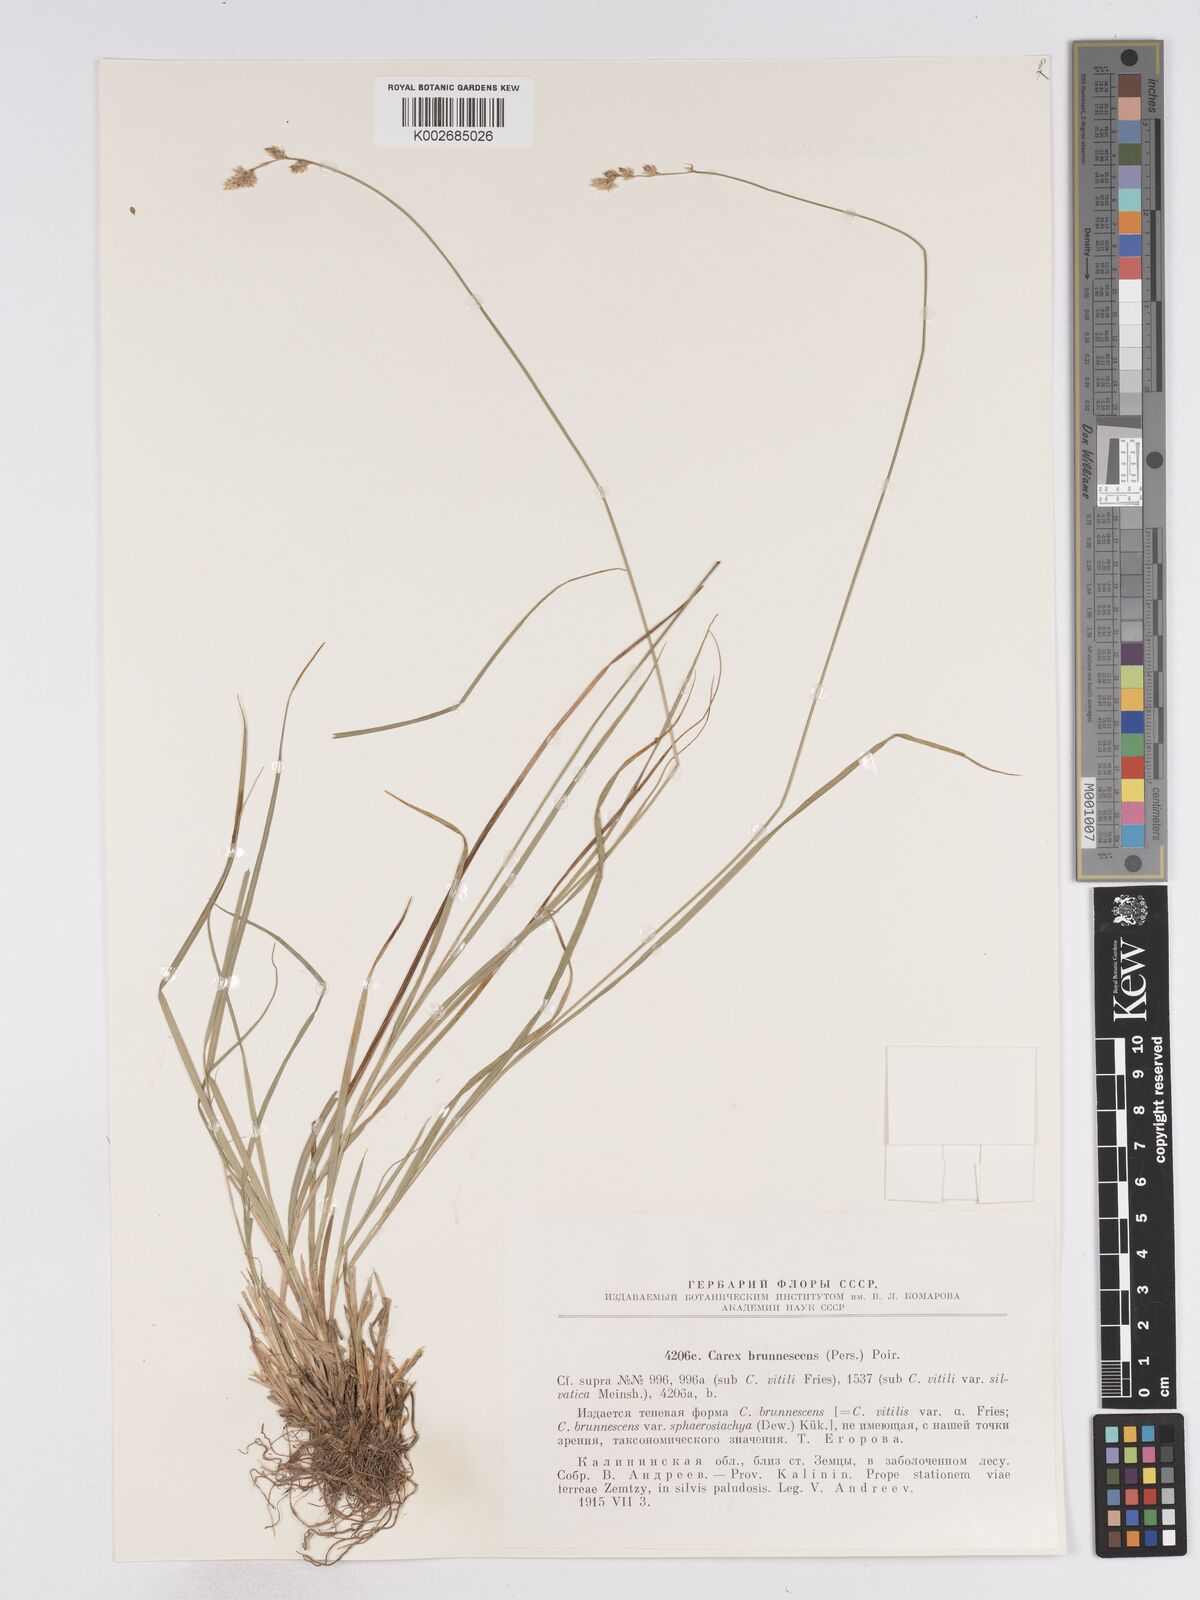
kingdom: Plantae
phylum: Tracheophyta
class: Liliopsida
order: Poales
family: Cyperaceae
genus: Carex
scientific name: Carex brunnescens
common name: Brown sedge
